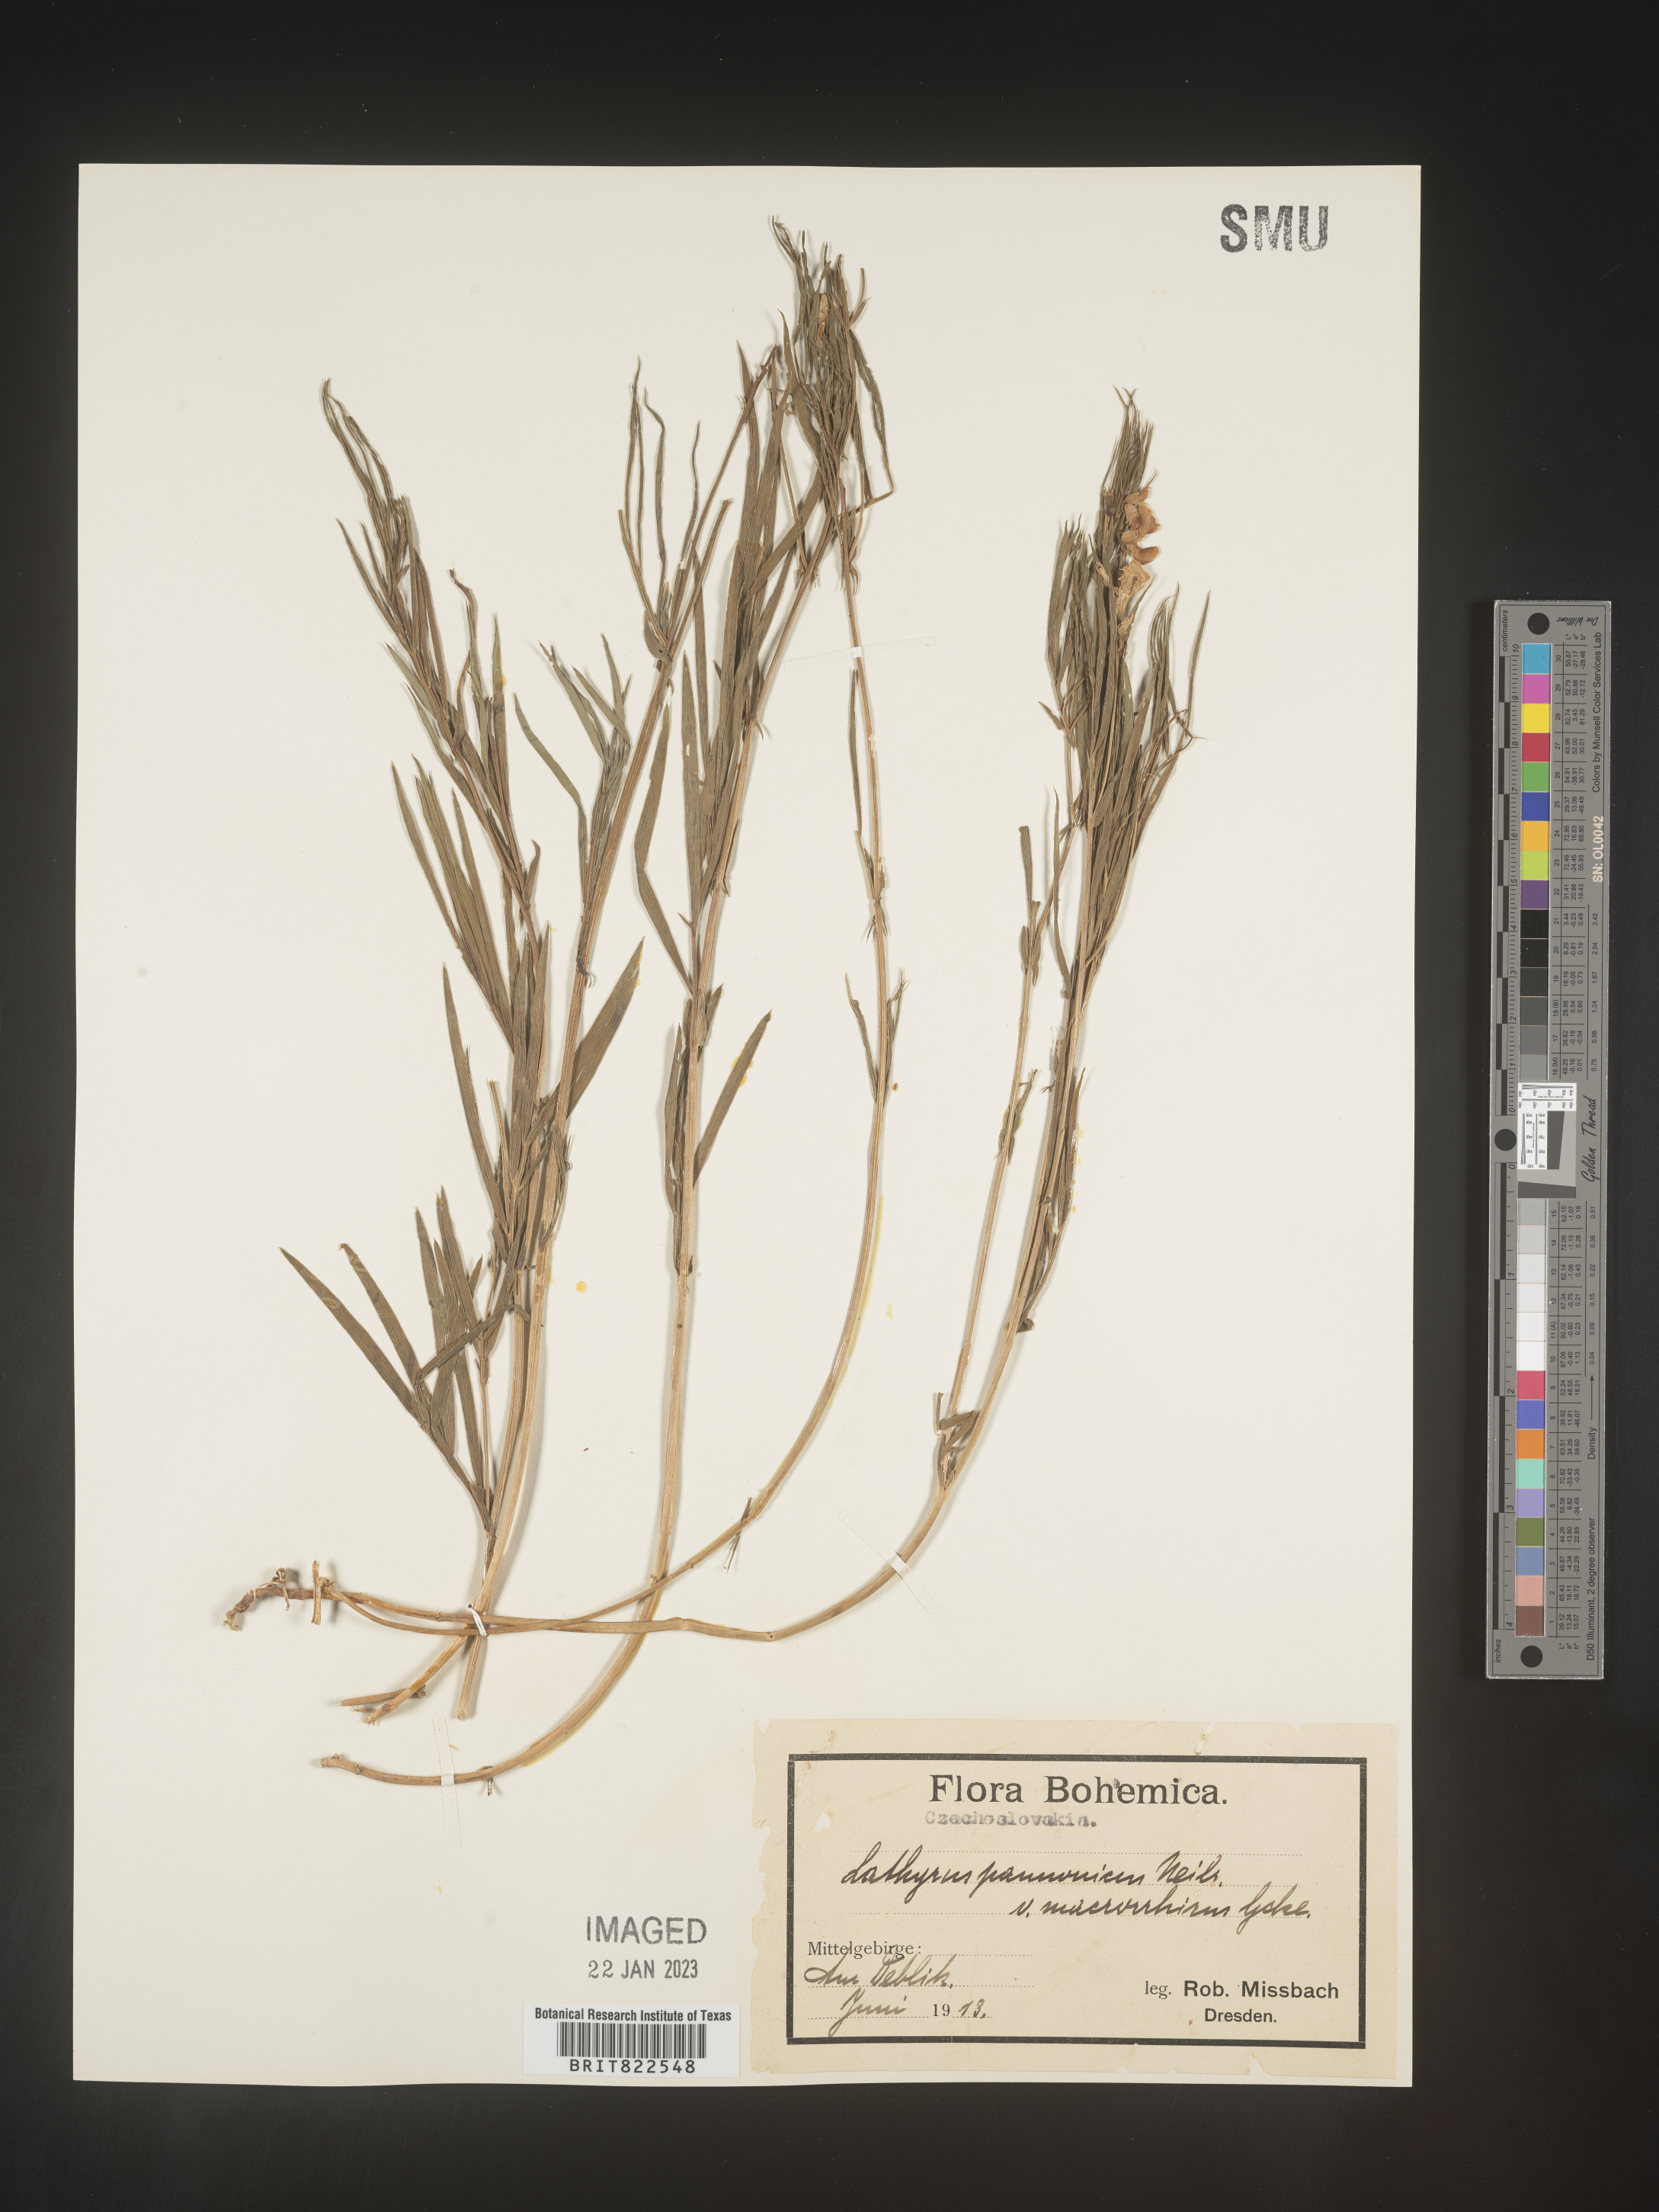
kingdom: Plantae
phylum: Tracheophyta
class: Magnoliopsida
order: Fabales
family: Fabaceae
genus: Lathyrus
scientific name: Lathyrus
